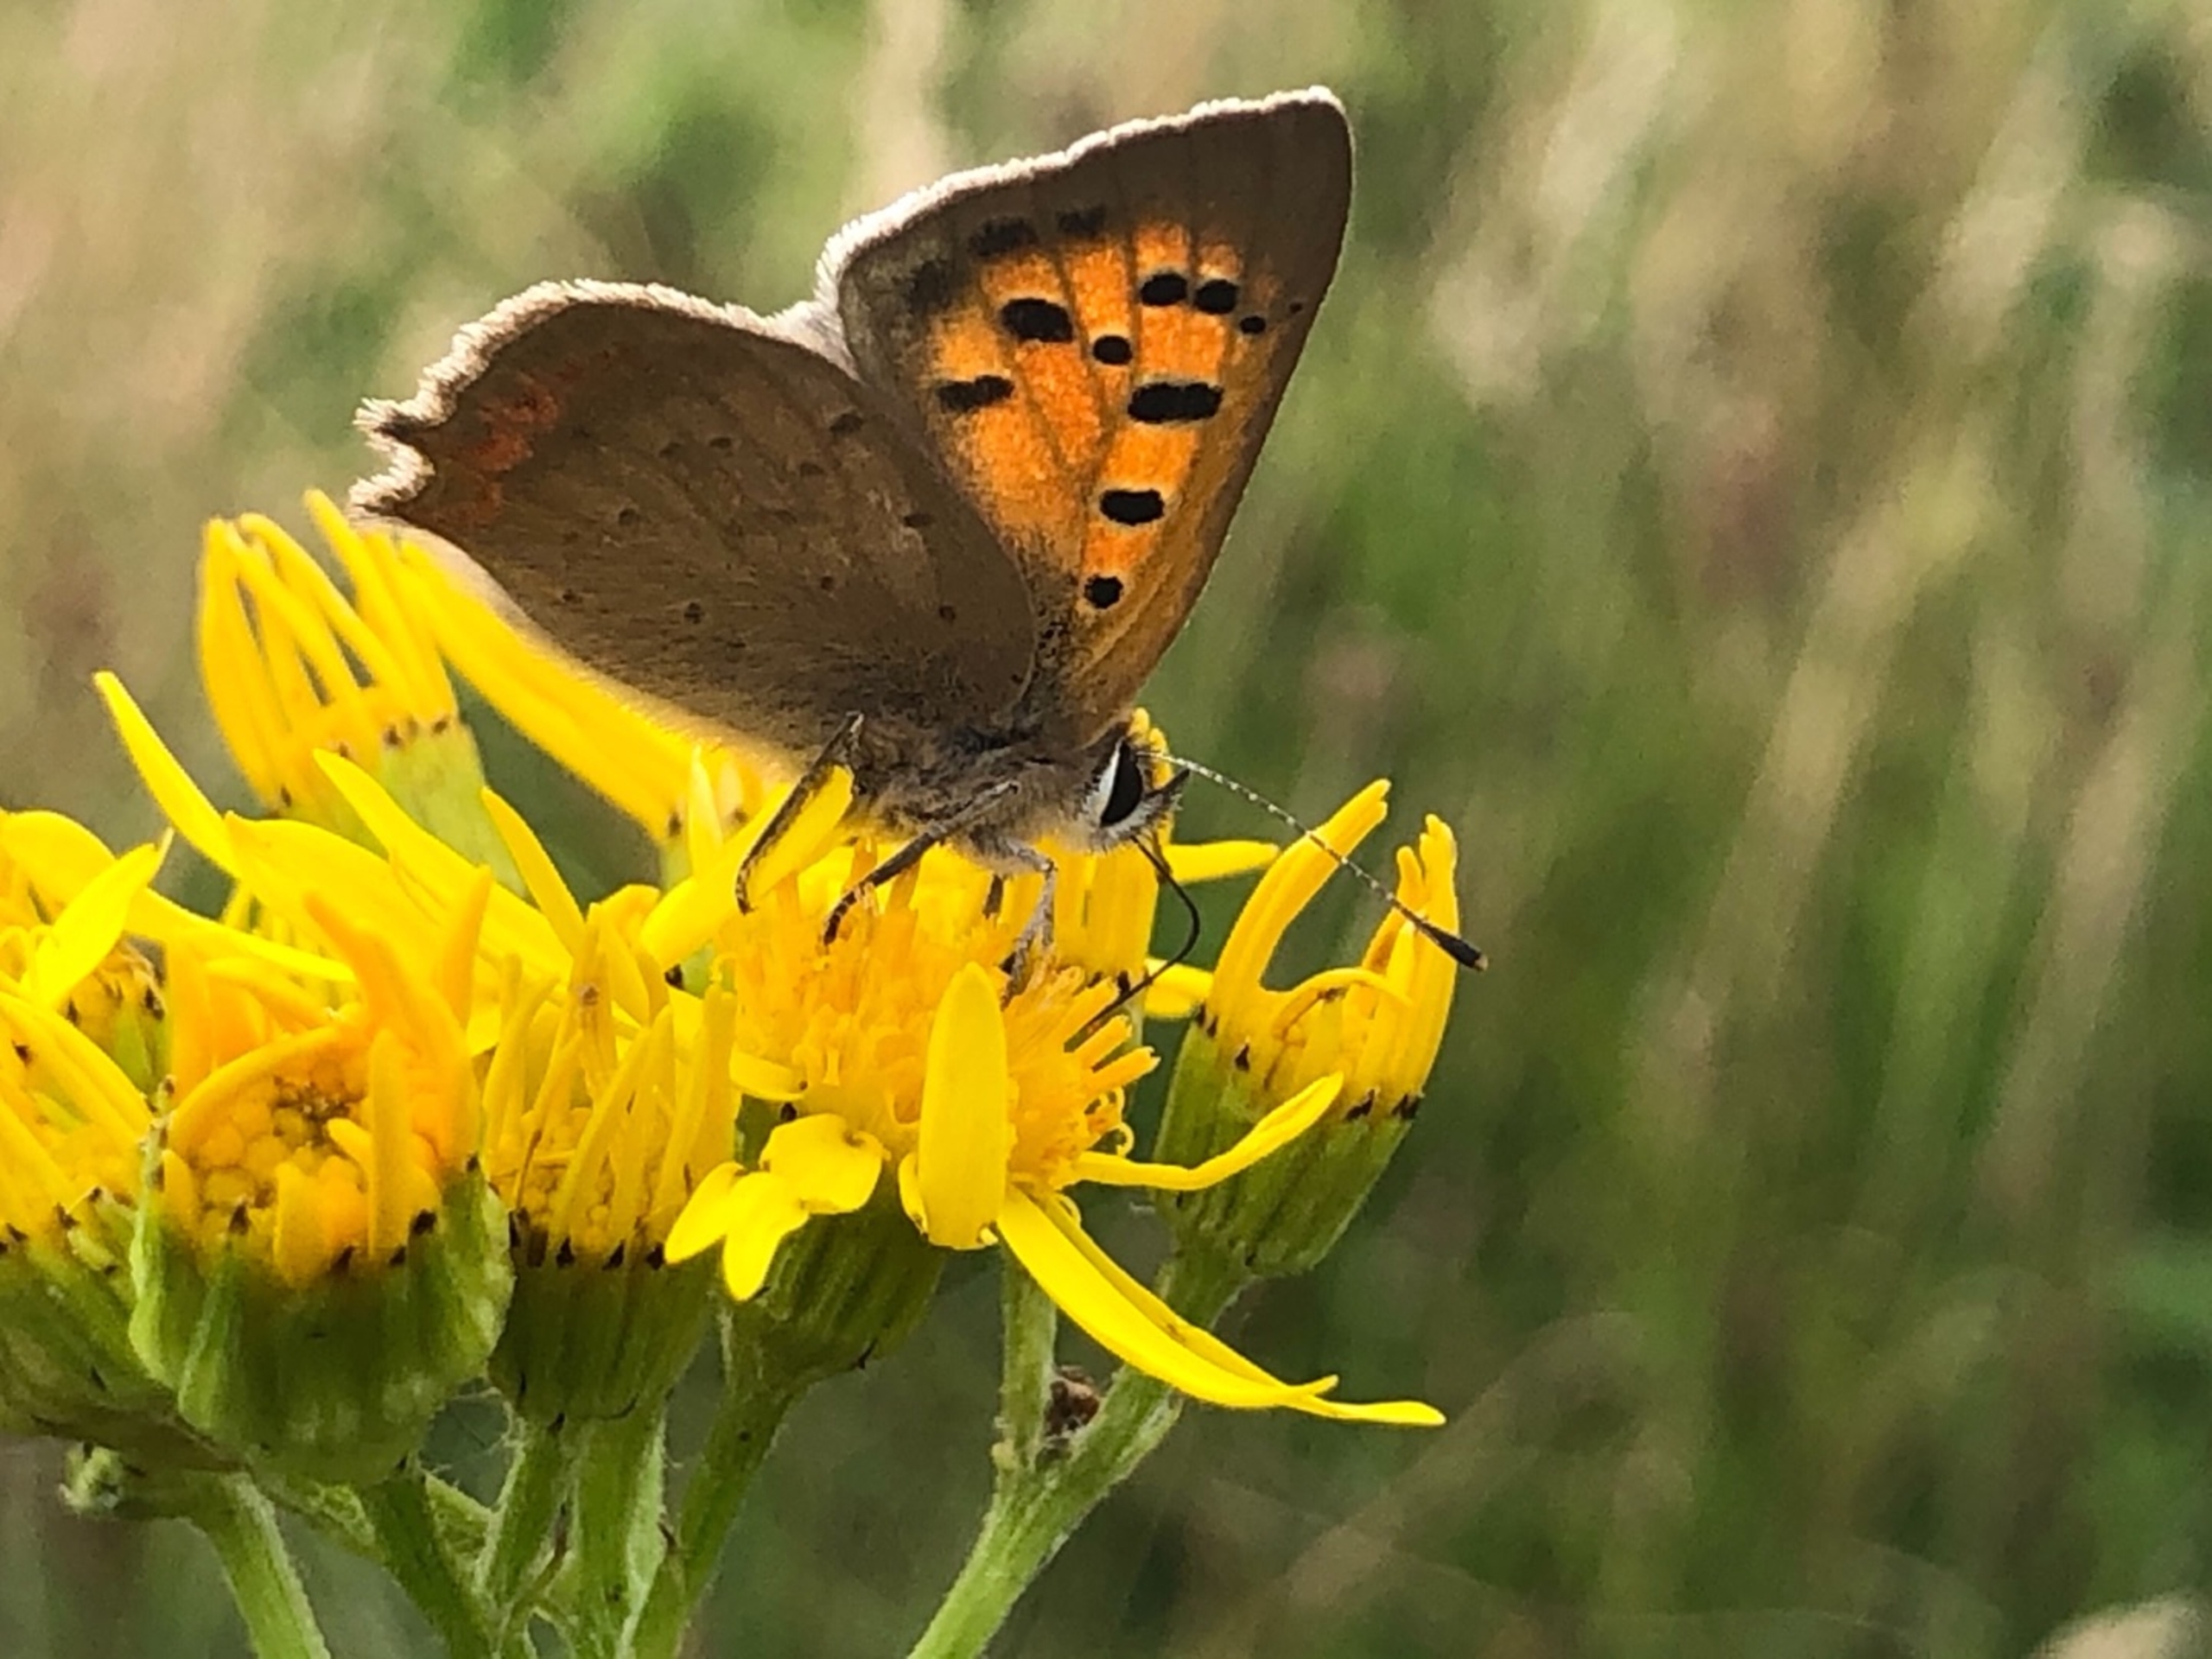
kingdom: Animalia
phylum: Arthropoda
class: Insecta
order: Lepidoptera
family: Lycaenidae
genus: Lycaena
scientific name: Lycaena phlaeas
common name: Lille ildfugl
